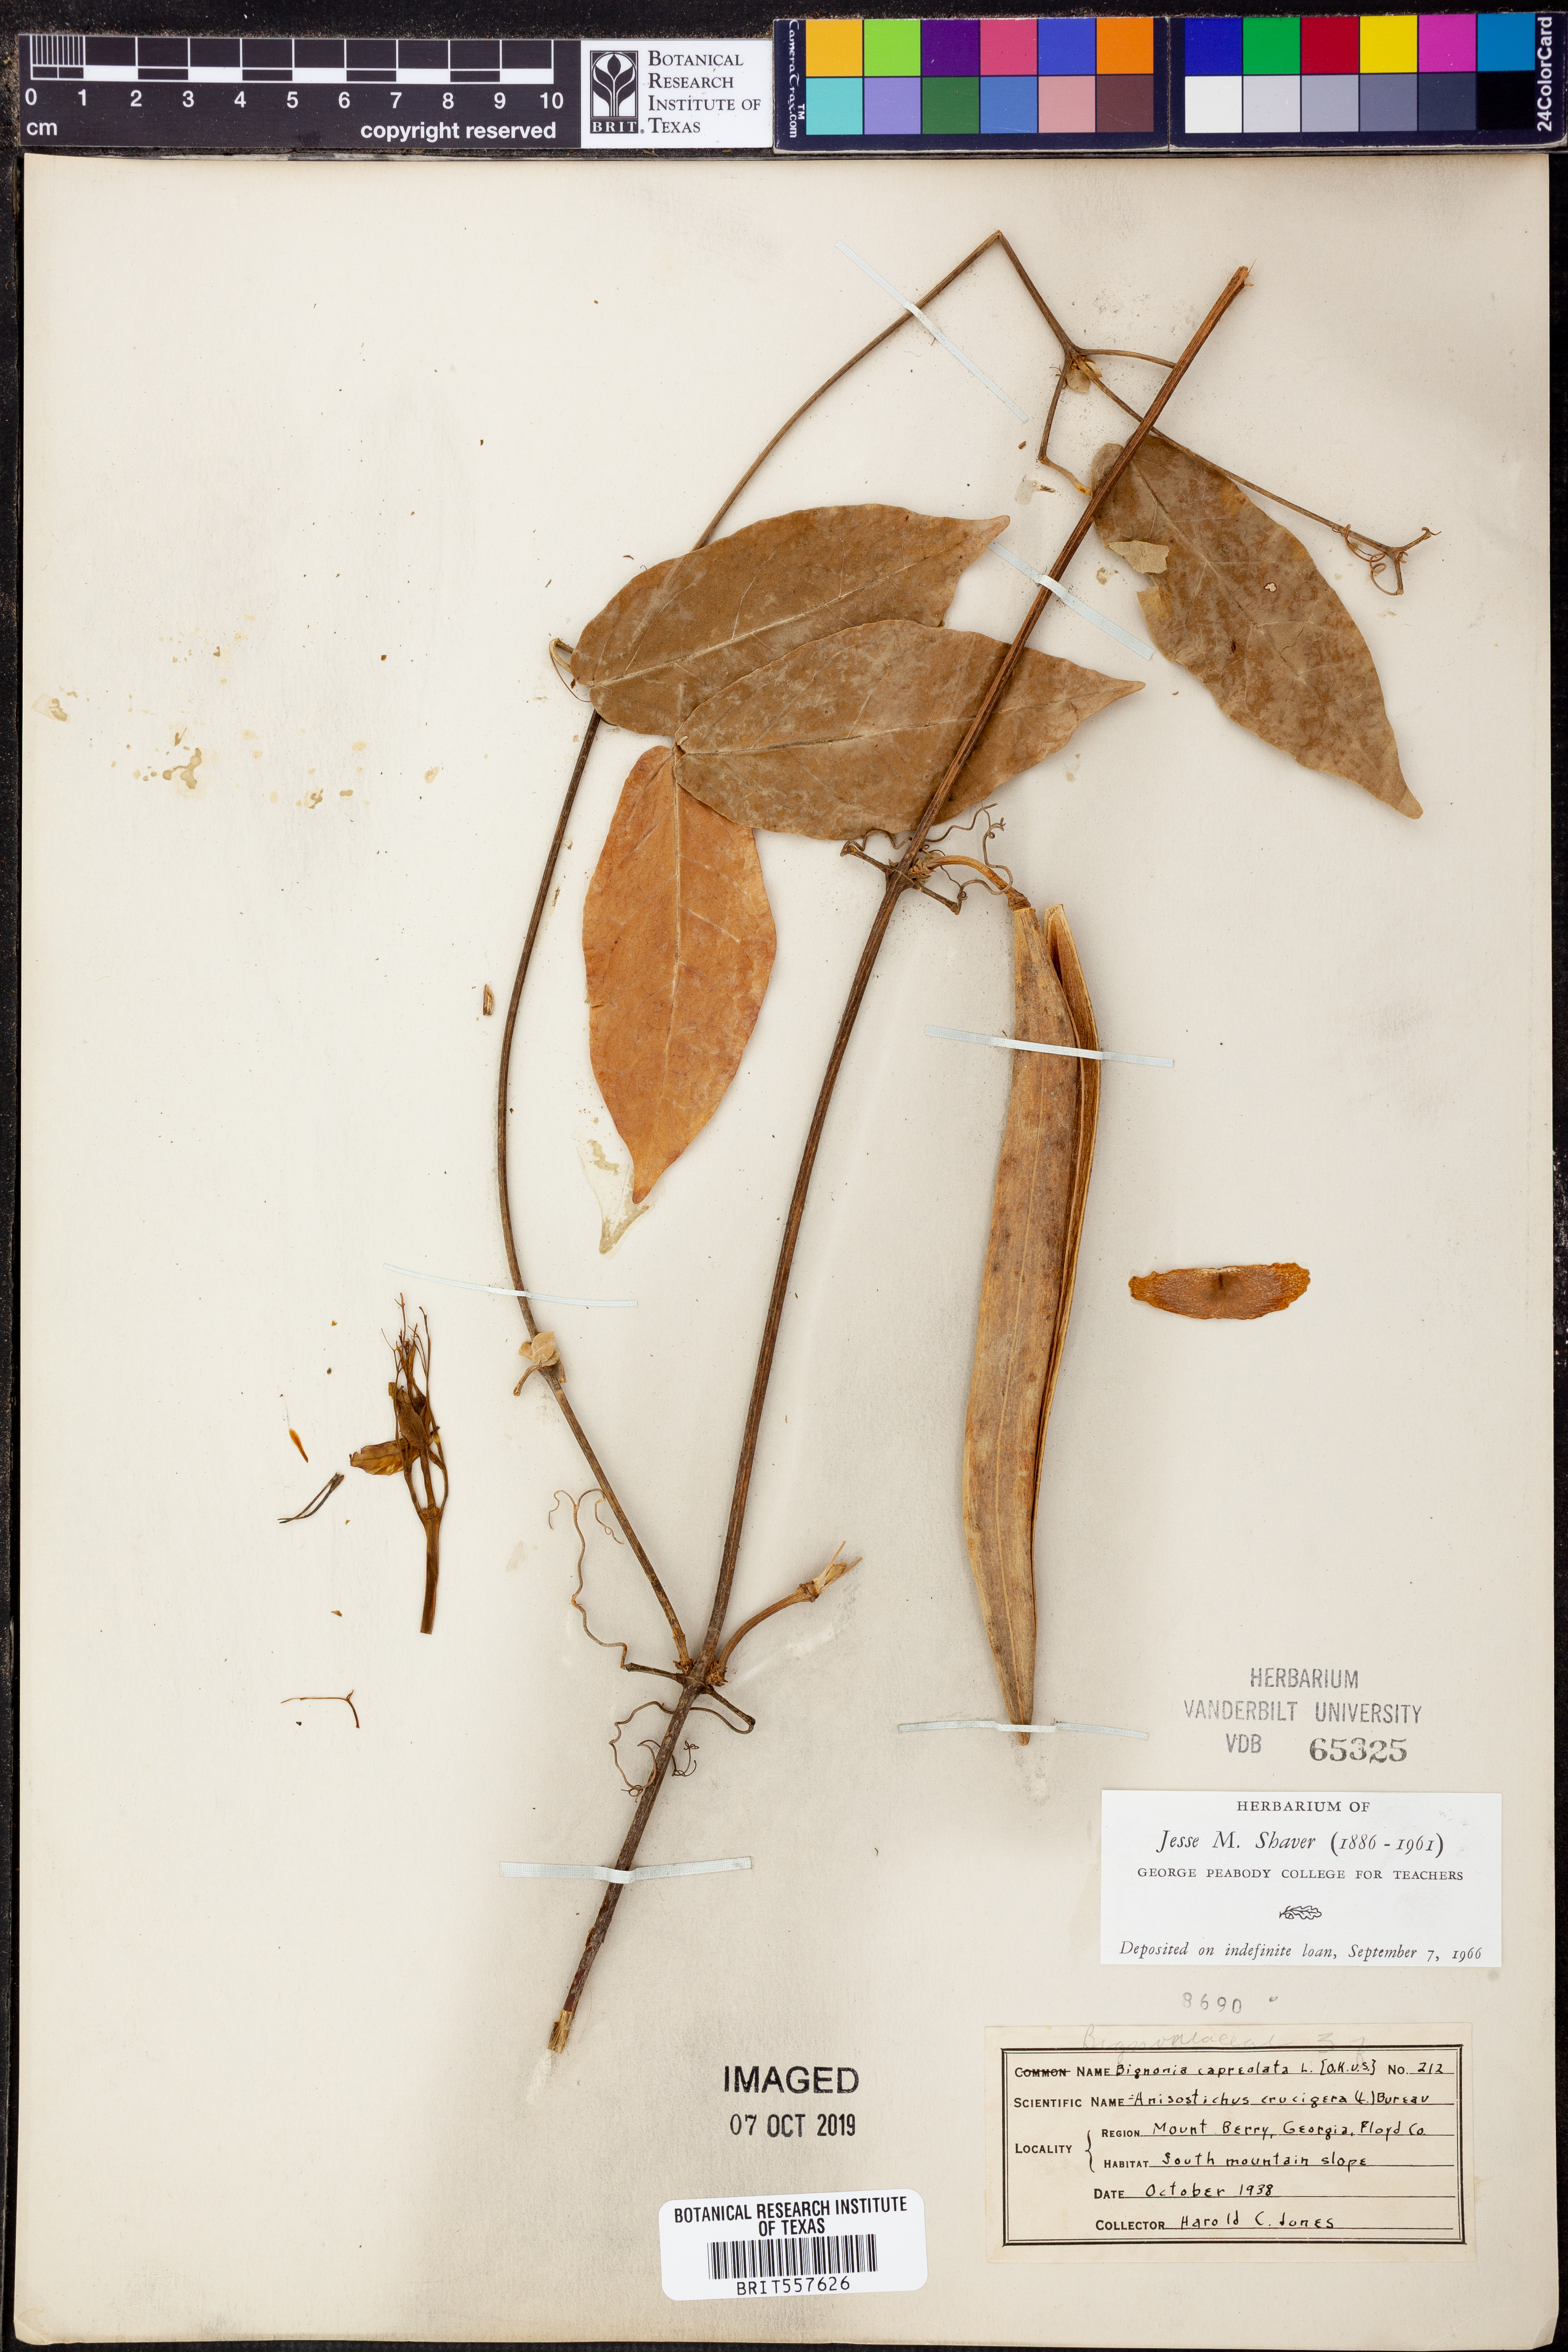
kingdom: Plantae
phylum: Tracheophyta
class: Magnoliopsida
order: Lamiales
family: Bignoniaceae
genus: Bignonia
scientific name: Bignonia capreolata
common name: Crossvine
